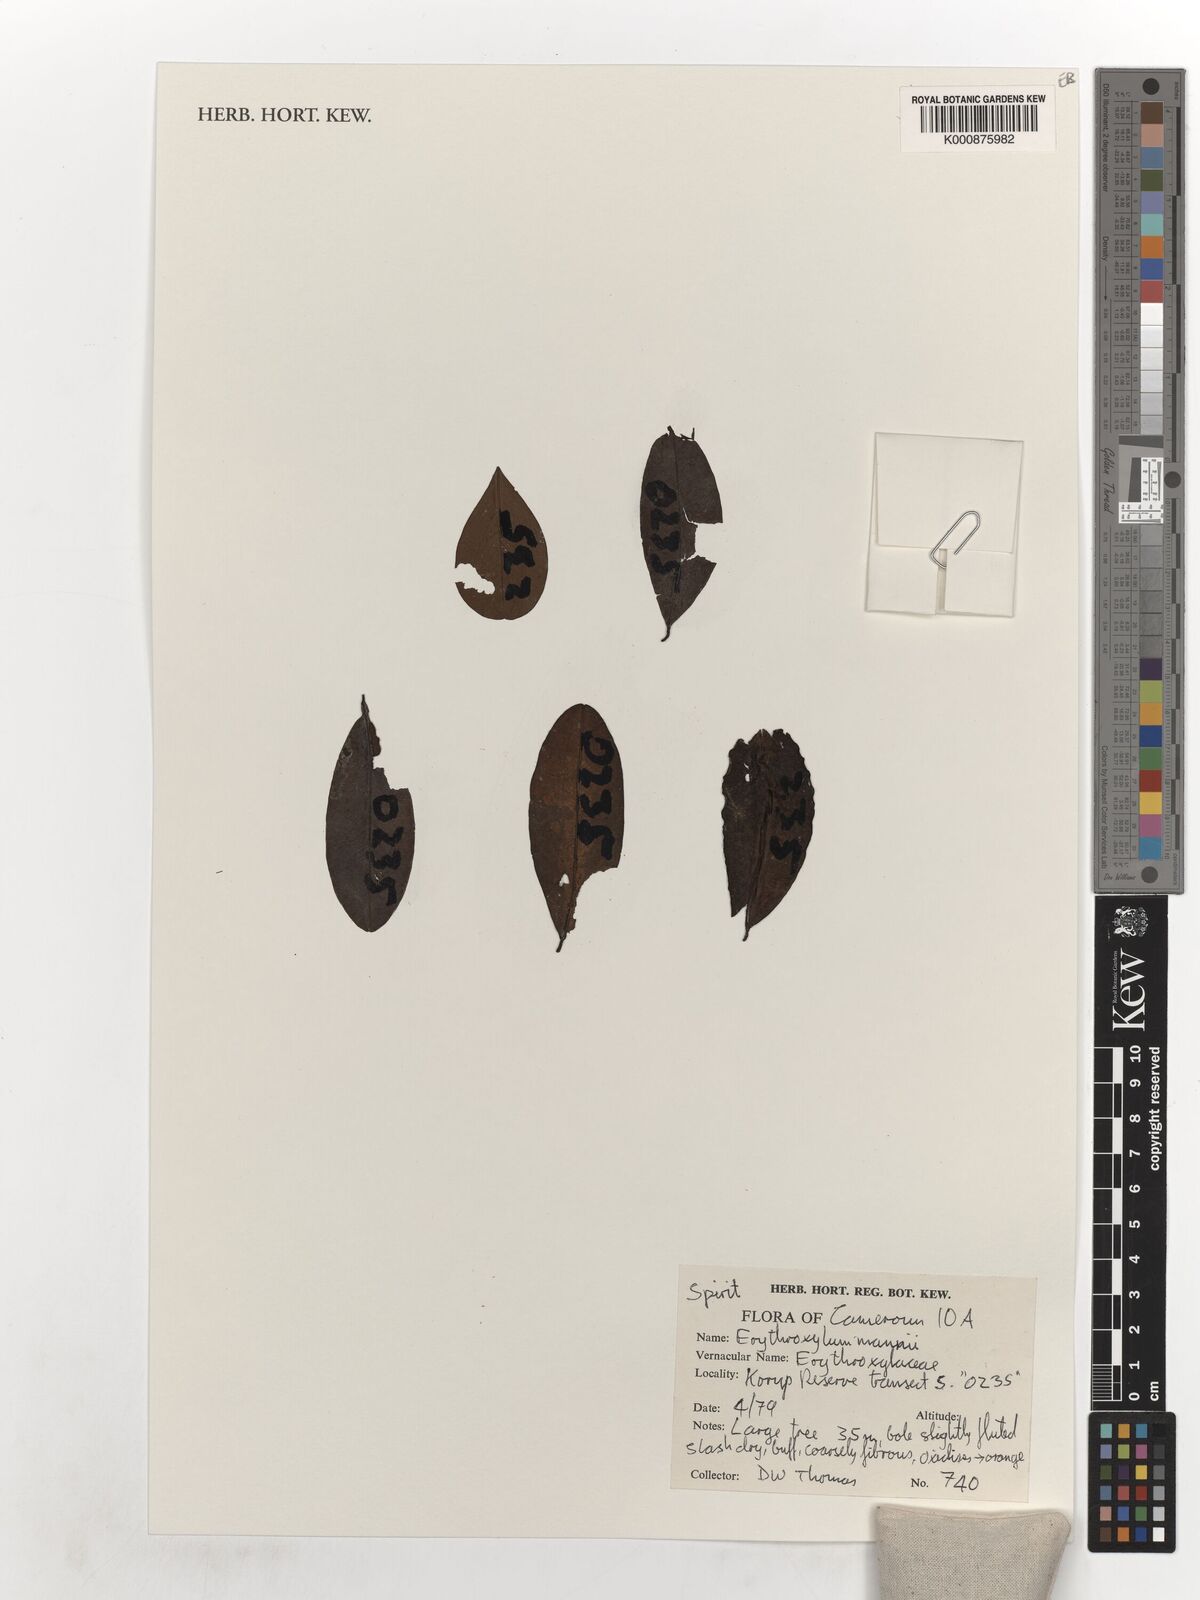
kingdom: Plantae
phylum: Tracheophyta
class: Magnoliopsida
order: Malpighiales
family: Erythroxylaceae
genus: Erythroxylum
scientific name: Erythroxylum
